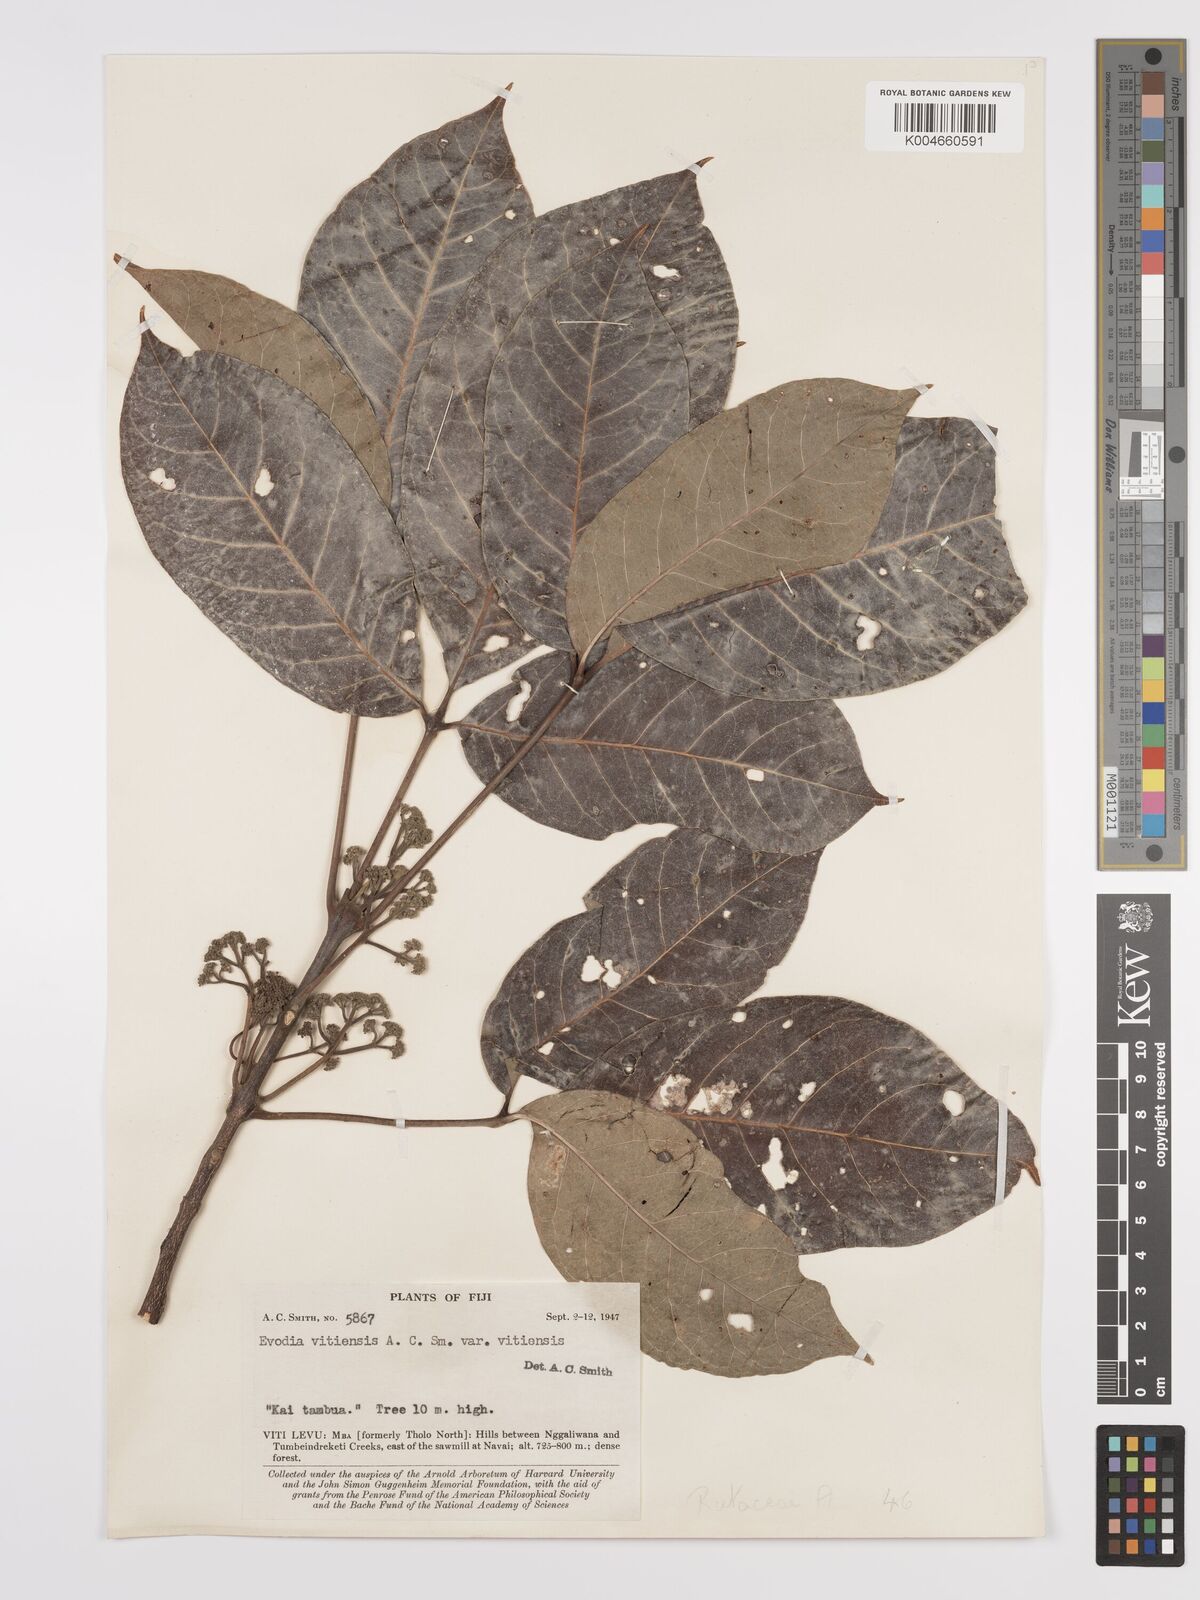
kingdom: Plantae
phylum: Tracheophyta
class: Magnoliopsida
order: Sapindales
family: Rutaceae
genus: Melicope
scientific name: Melicope cucullata
